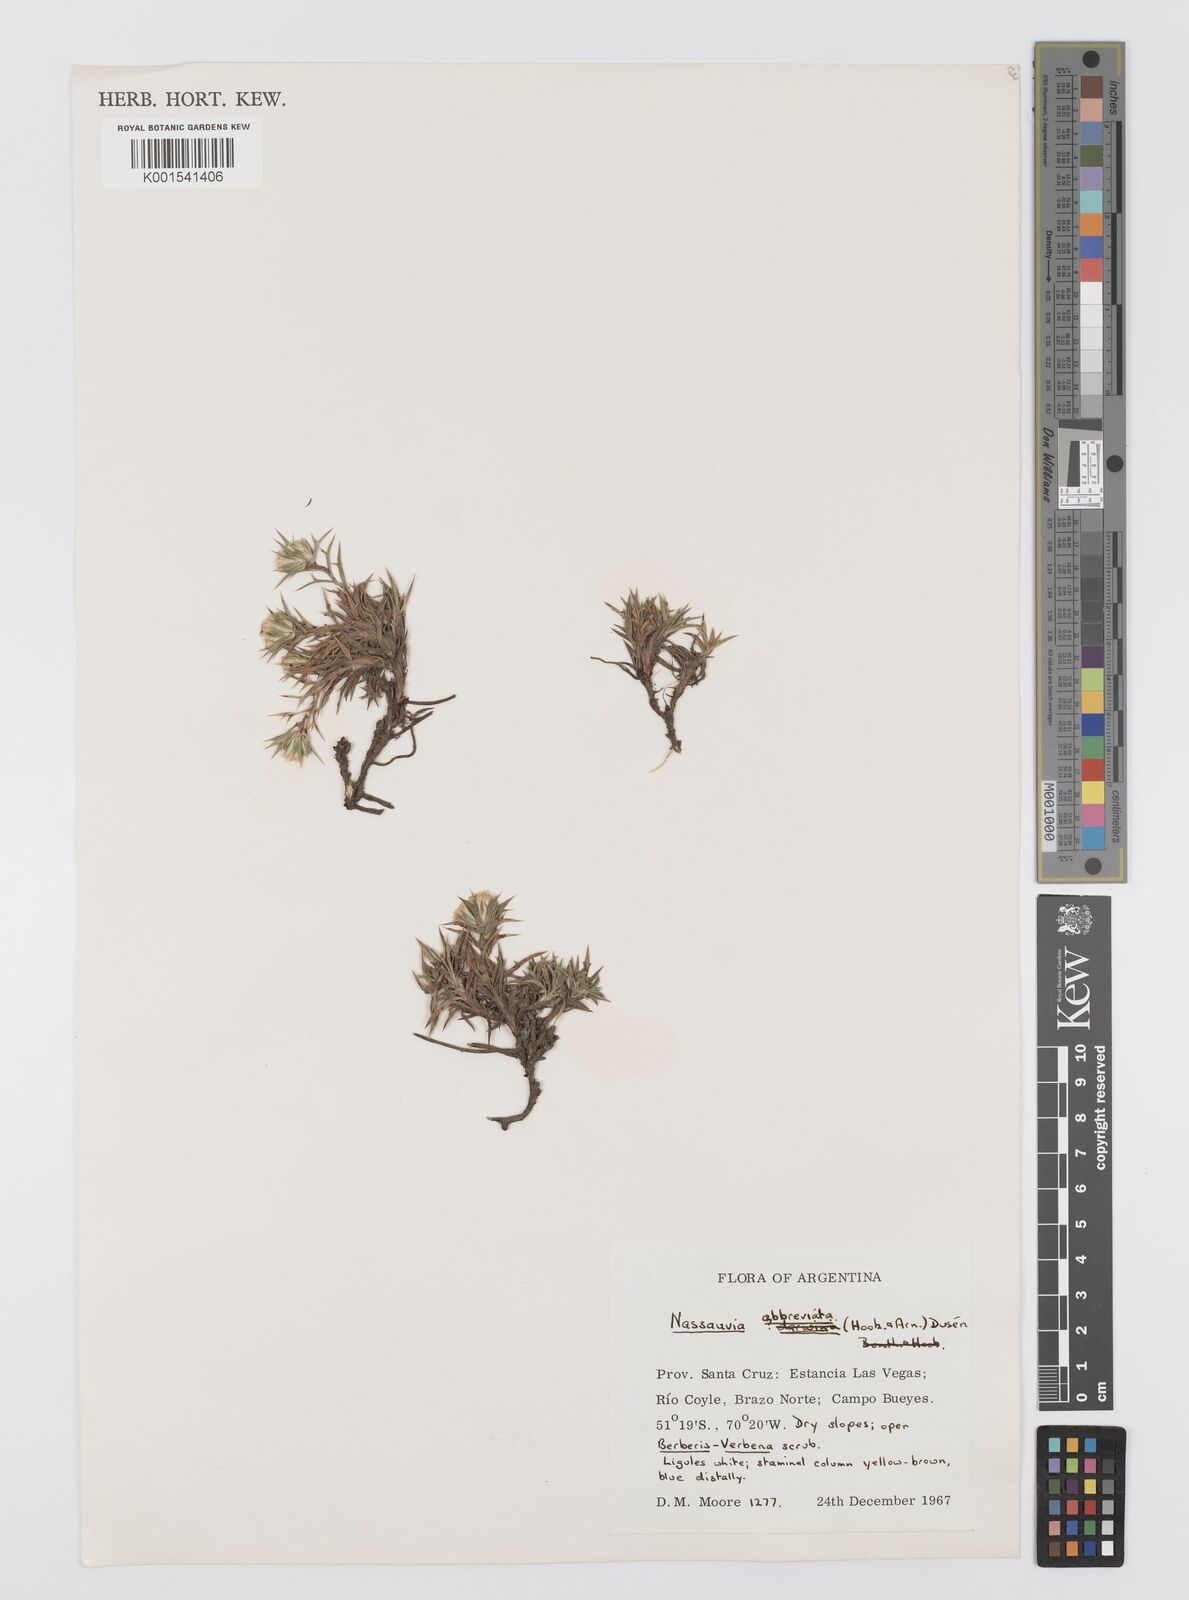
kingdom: Plantae
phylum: Tracheophyta
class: Magnoliopsida
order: Asterales
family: Asteraceae
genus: Nassauvia
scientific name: Nassauvia aculeata
